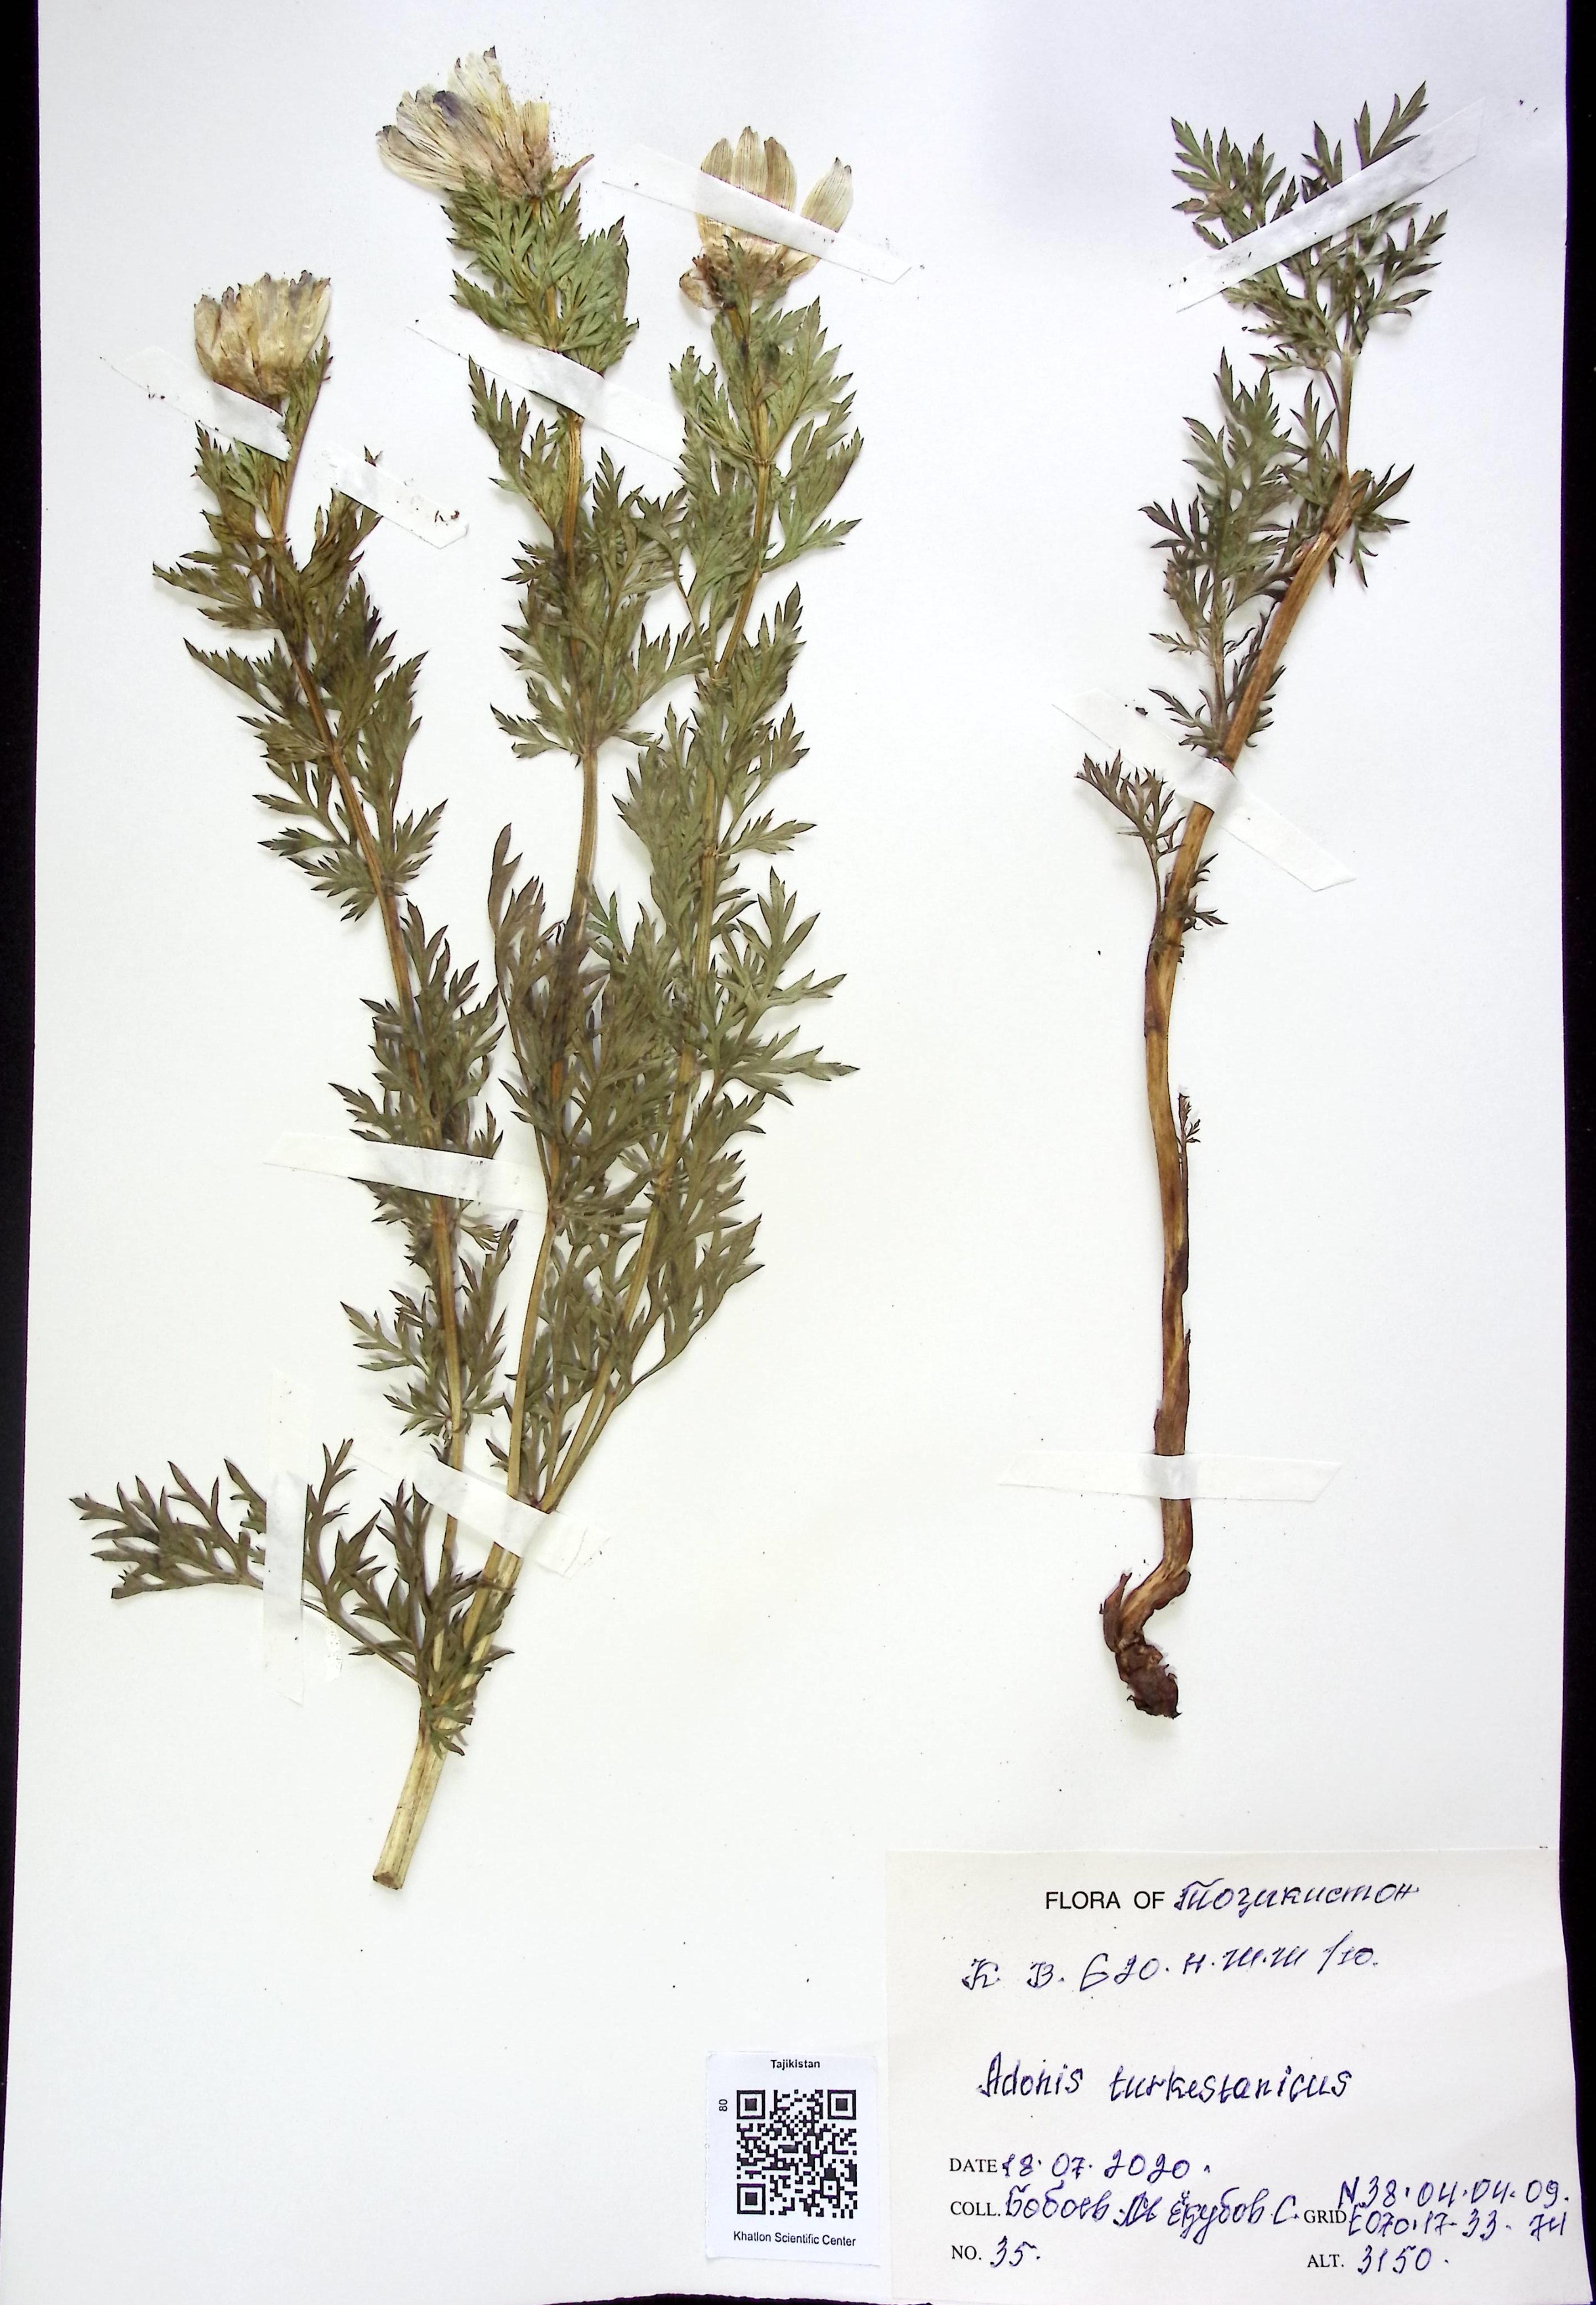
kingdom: Plantae
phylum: Tracheophyta
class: Magnoliopsida
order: Ranunculales
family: Ranunculaceae
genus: Adonis
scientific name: Adonis turkestanica
